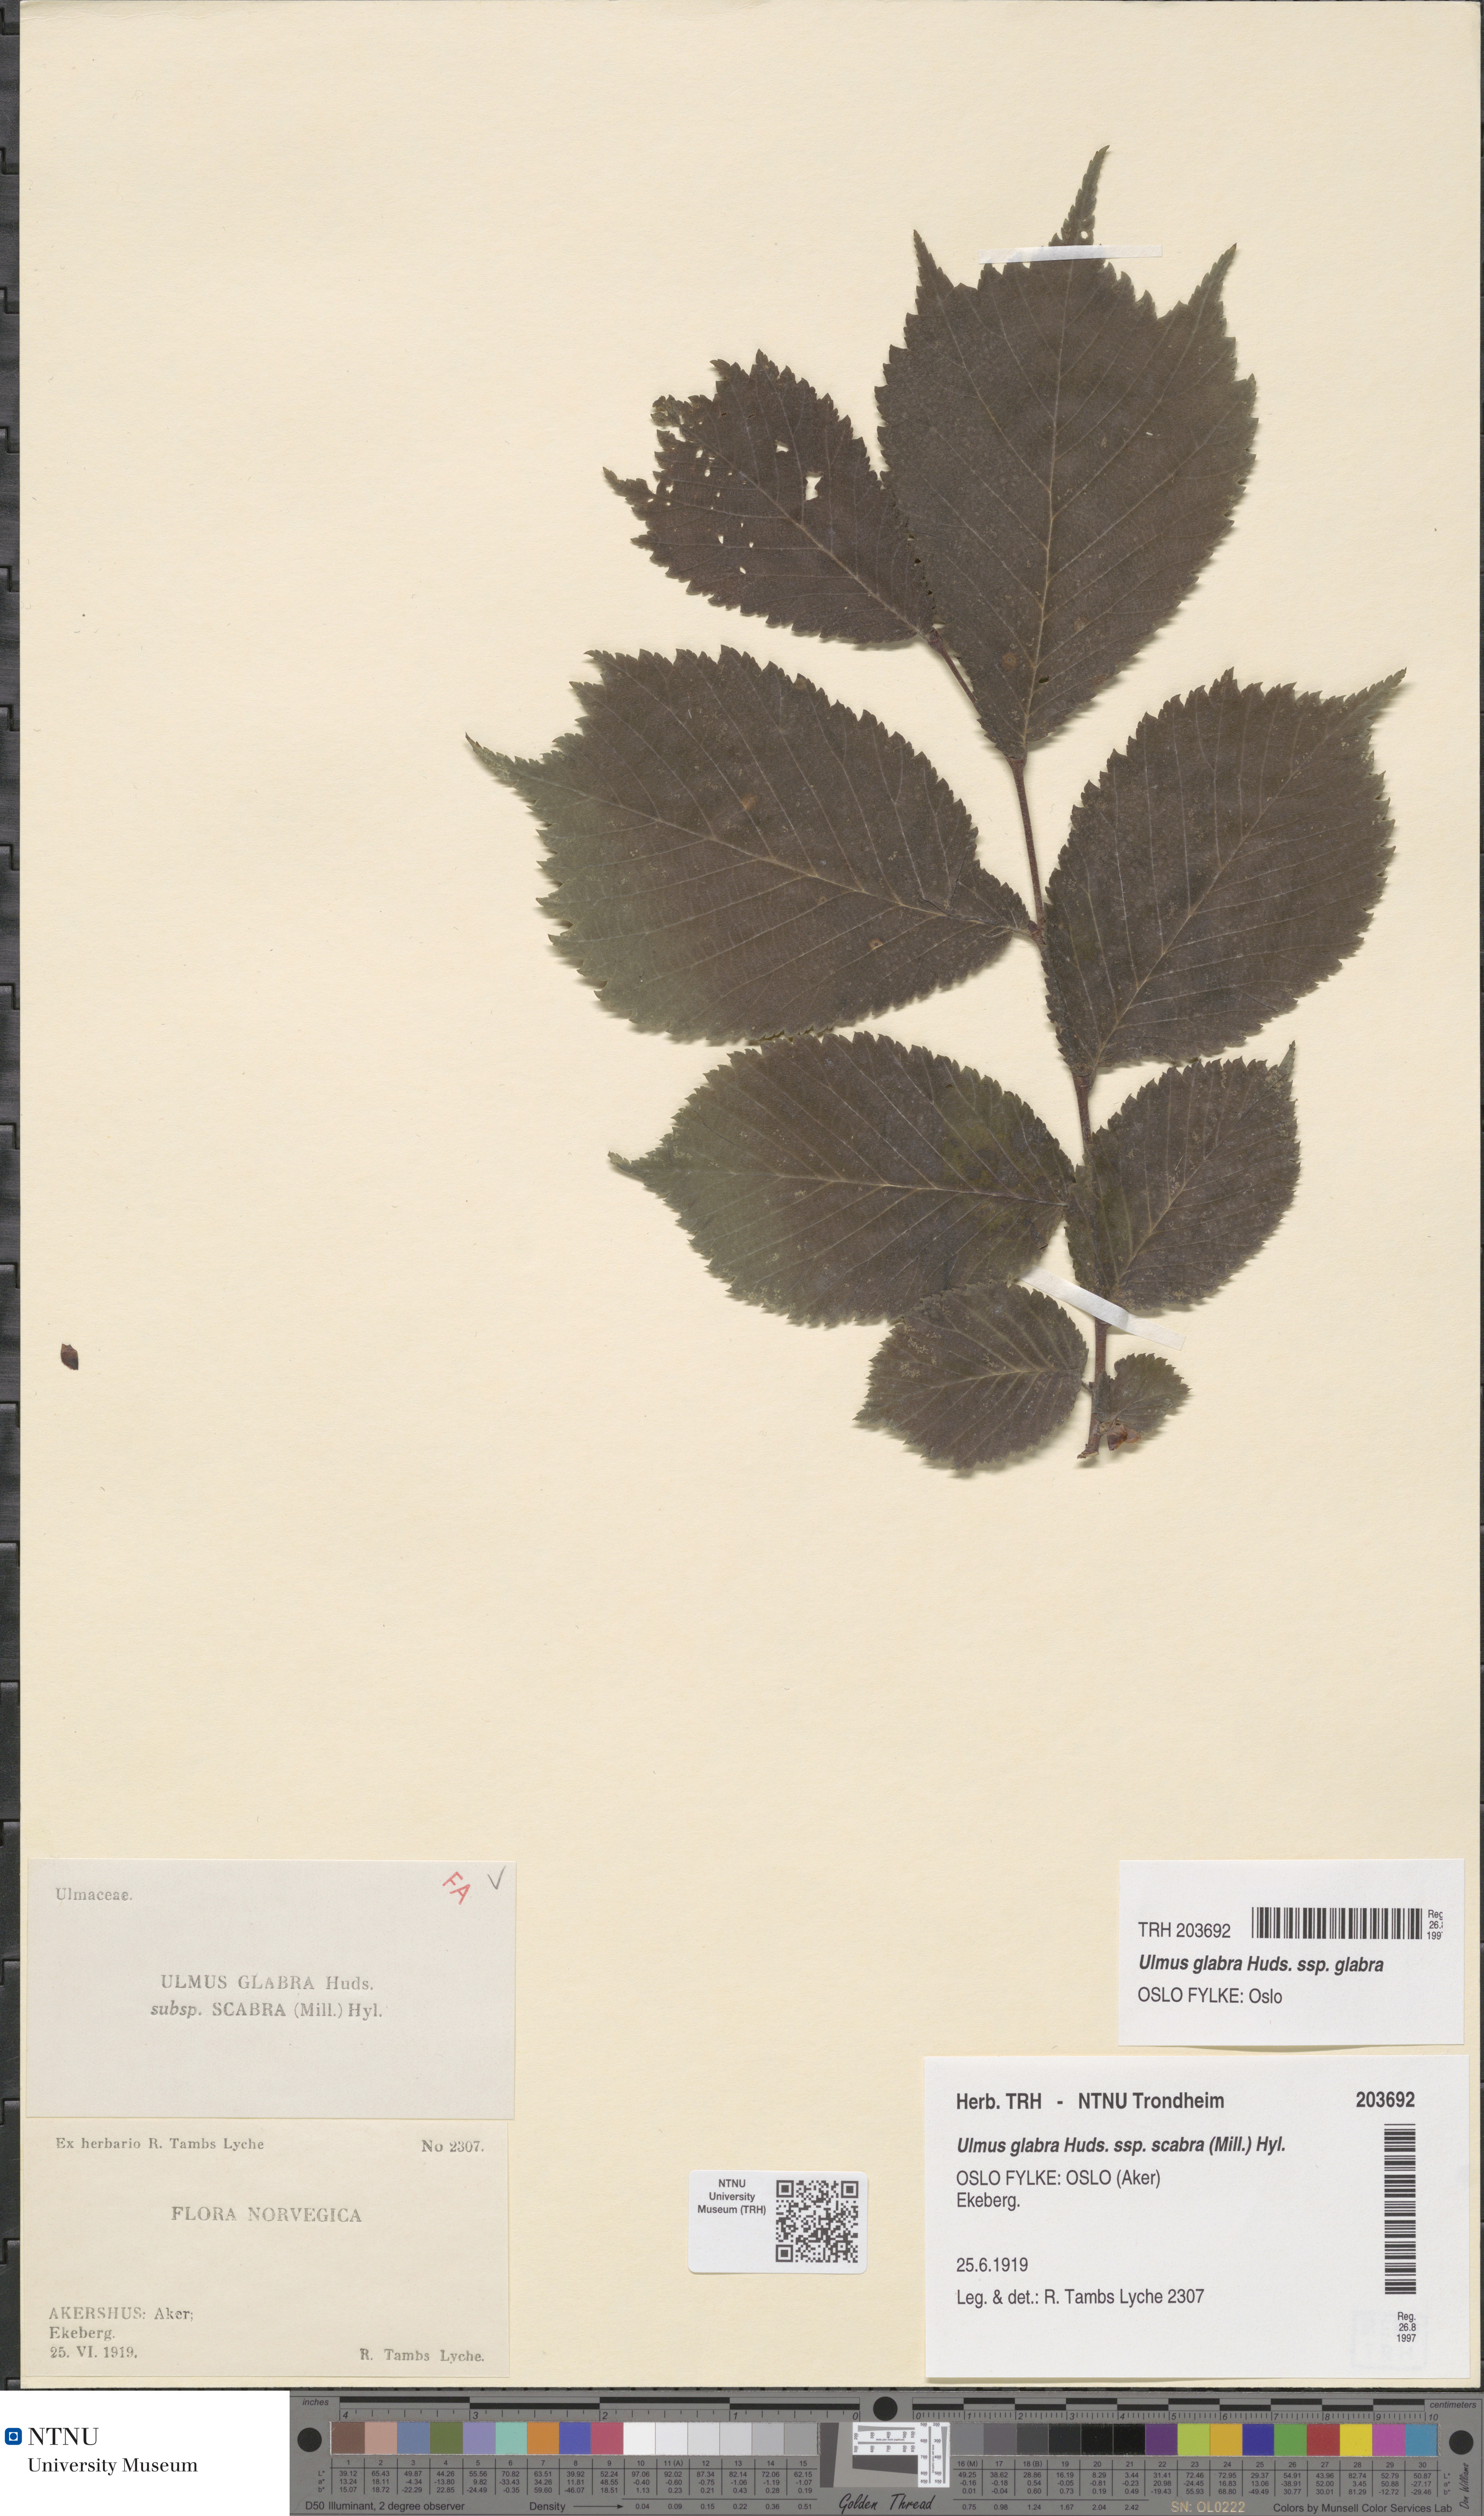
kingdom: Plantae
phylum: Tracheophyta
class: Magnoliopsida
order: Rosales
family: Ulmaceae
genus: Ulmus
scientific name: Ulmus glabra
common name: Wych elm
